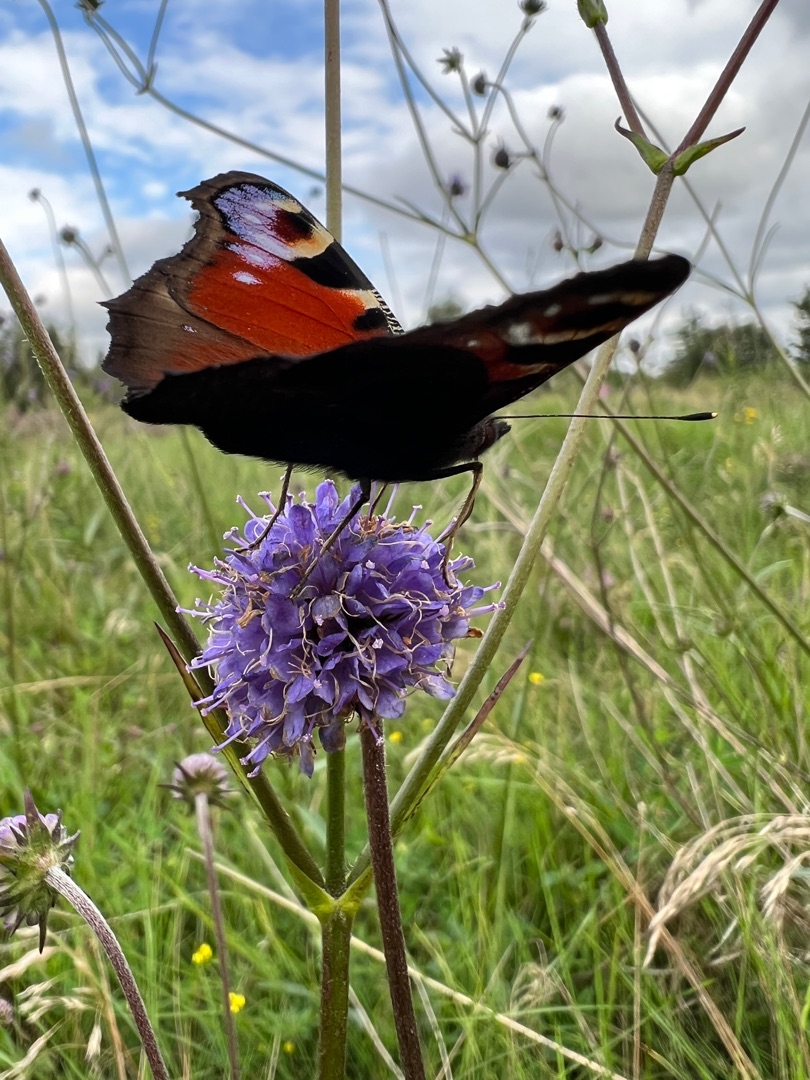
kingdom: Animalia
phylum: Arthropoda
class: Insecta
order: Lepidoptera
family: Nymphalidae
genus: Aglais
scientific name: Aglais io
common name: Dagpåfugleøje
